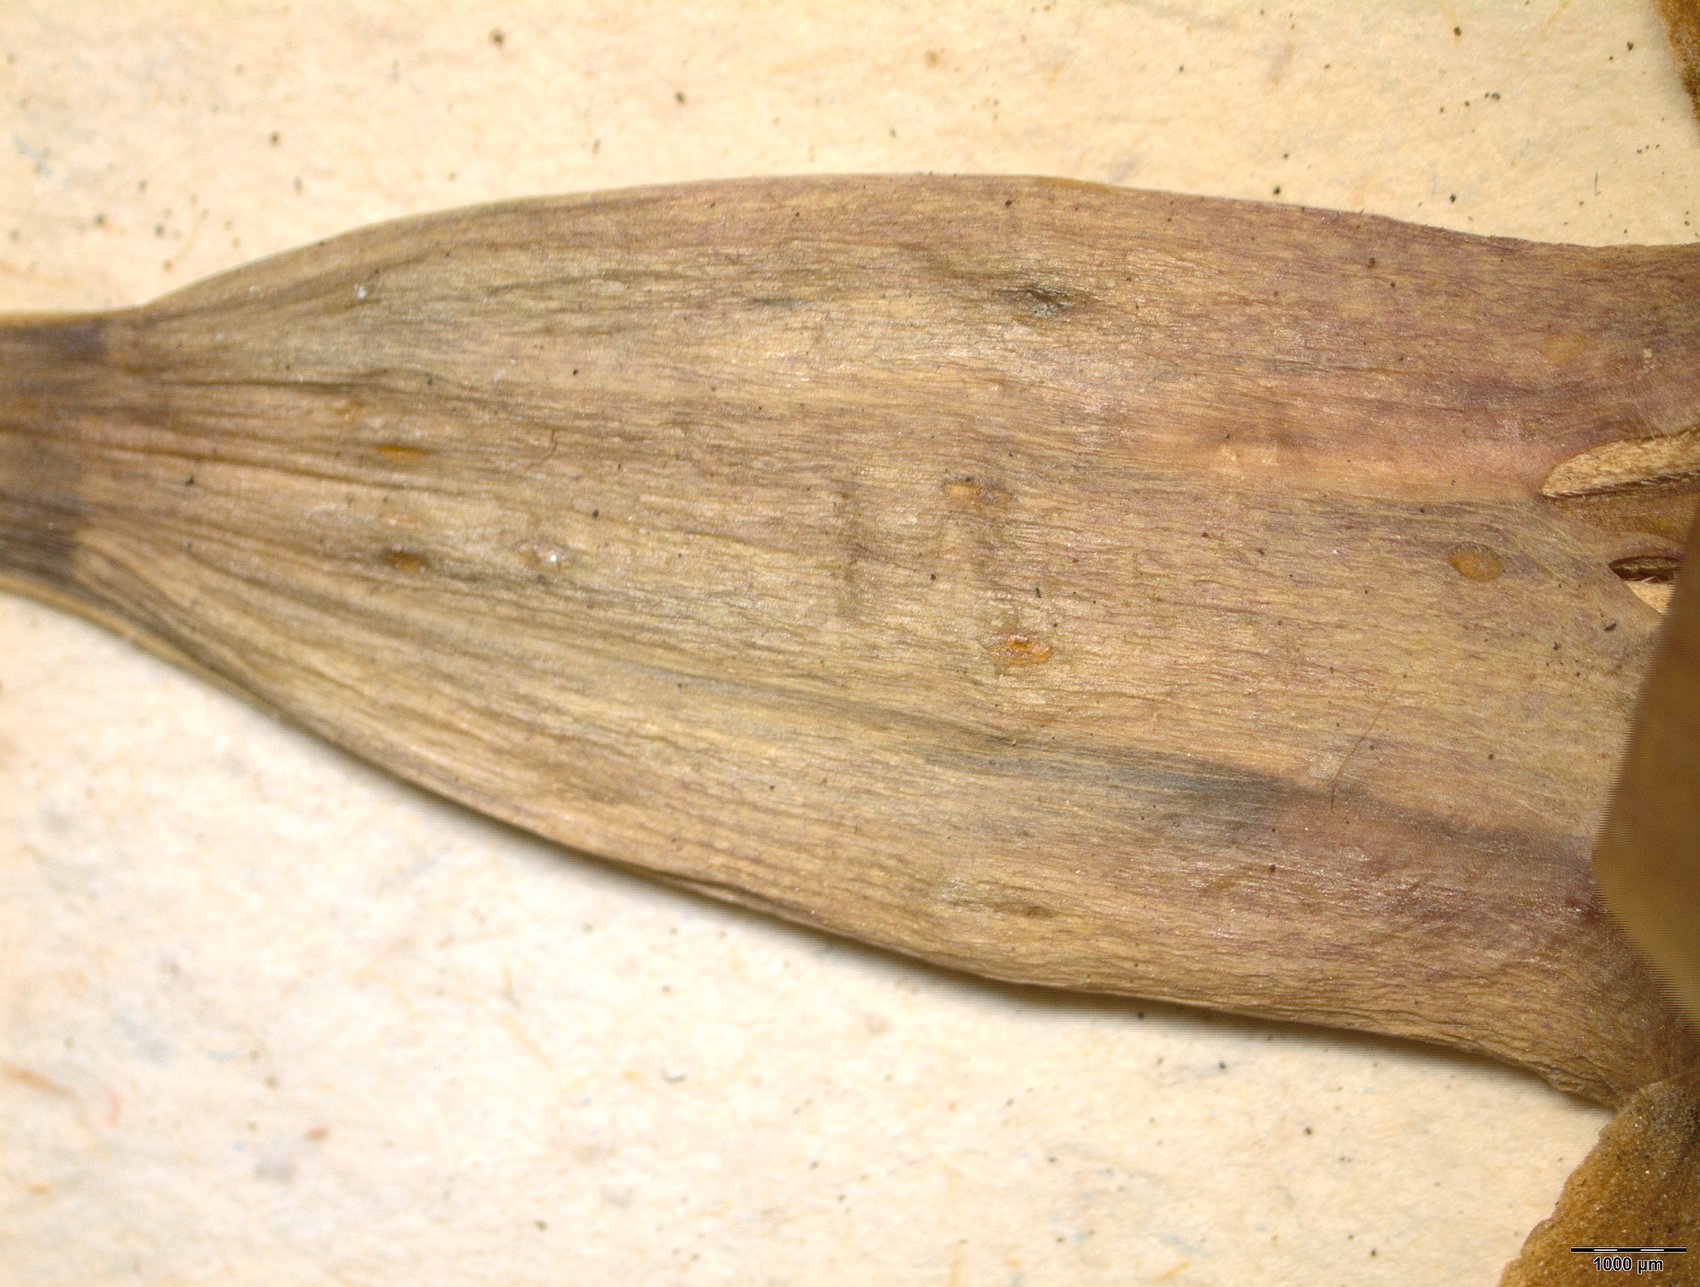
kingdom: Plantae
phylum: Tracheophyta
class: Magnoliopsida
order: Asterales
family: Asteraceae
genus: Tagetes
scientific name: Tagetes erecta
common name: African marigold
